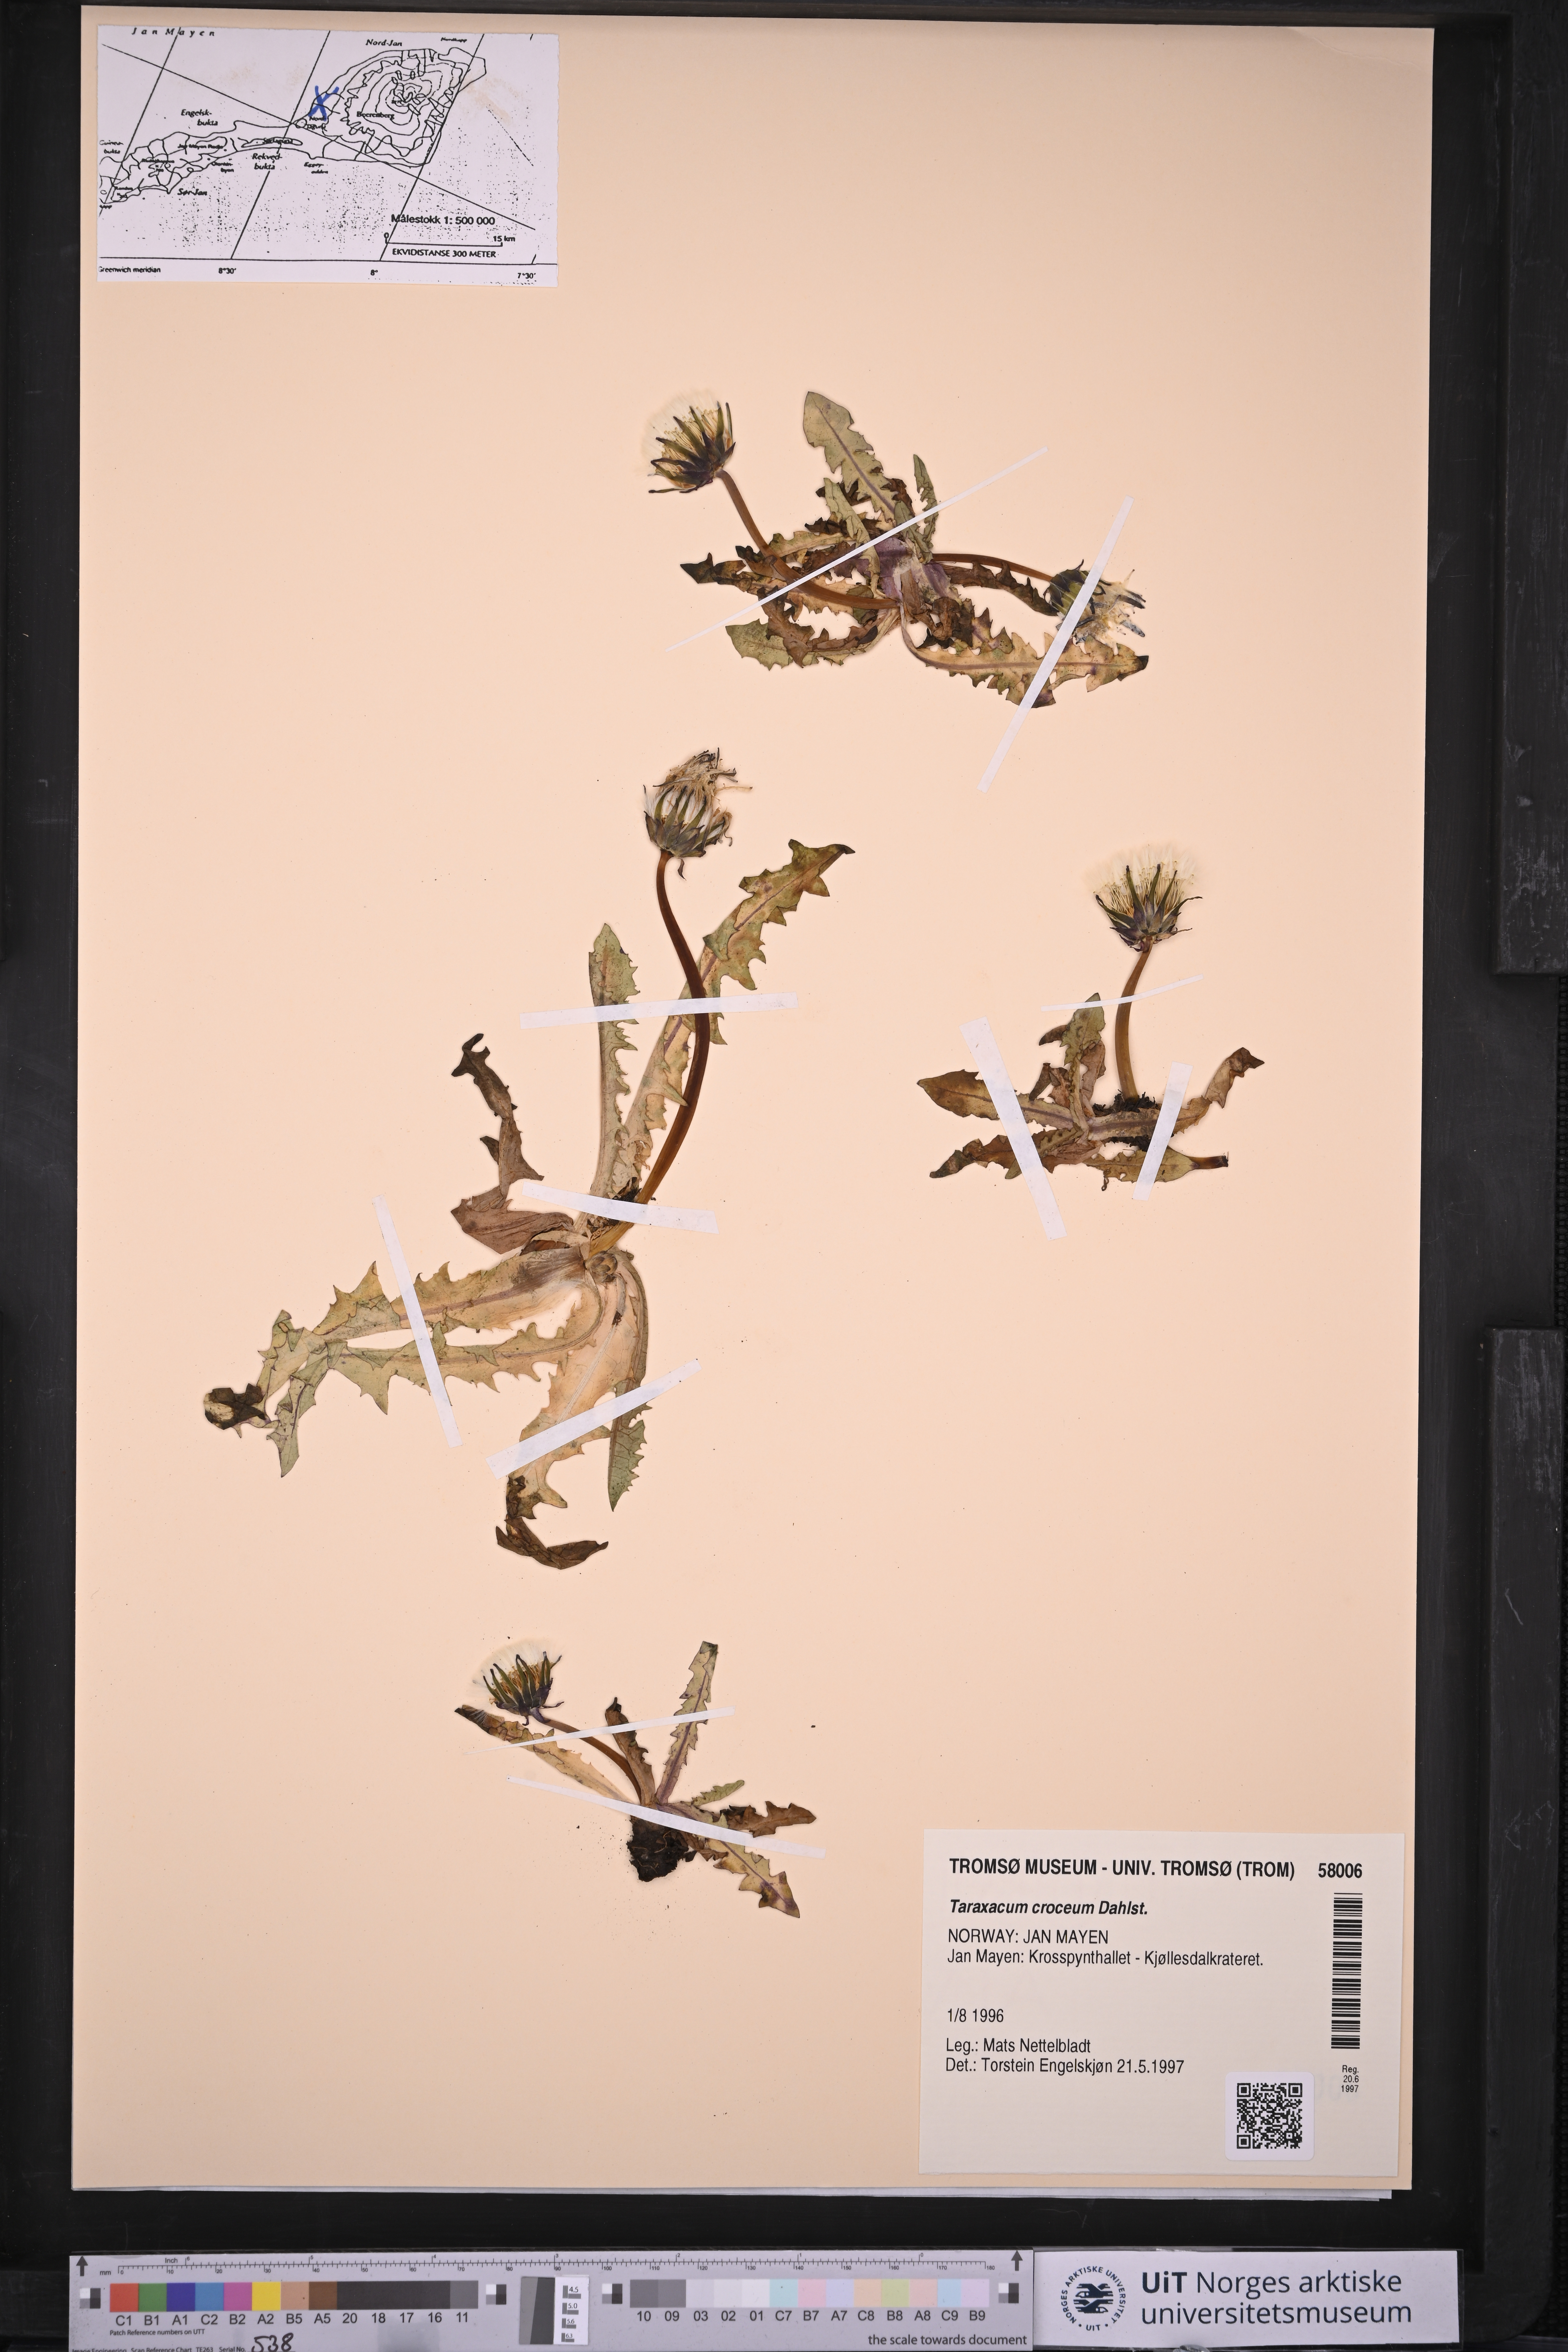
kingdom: Plantae
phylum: Tracheophyta
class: Magnoliopsida
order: Asterales
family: Asteraceae
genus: Taraxacum
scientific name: Taraxacum croceum
